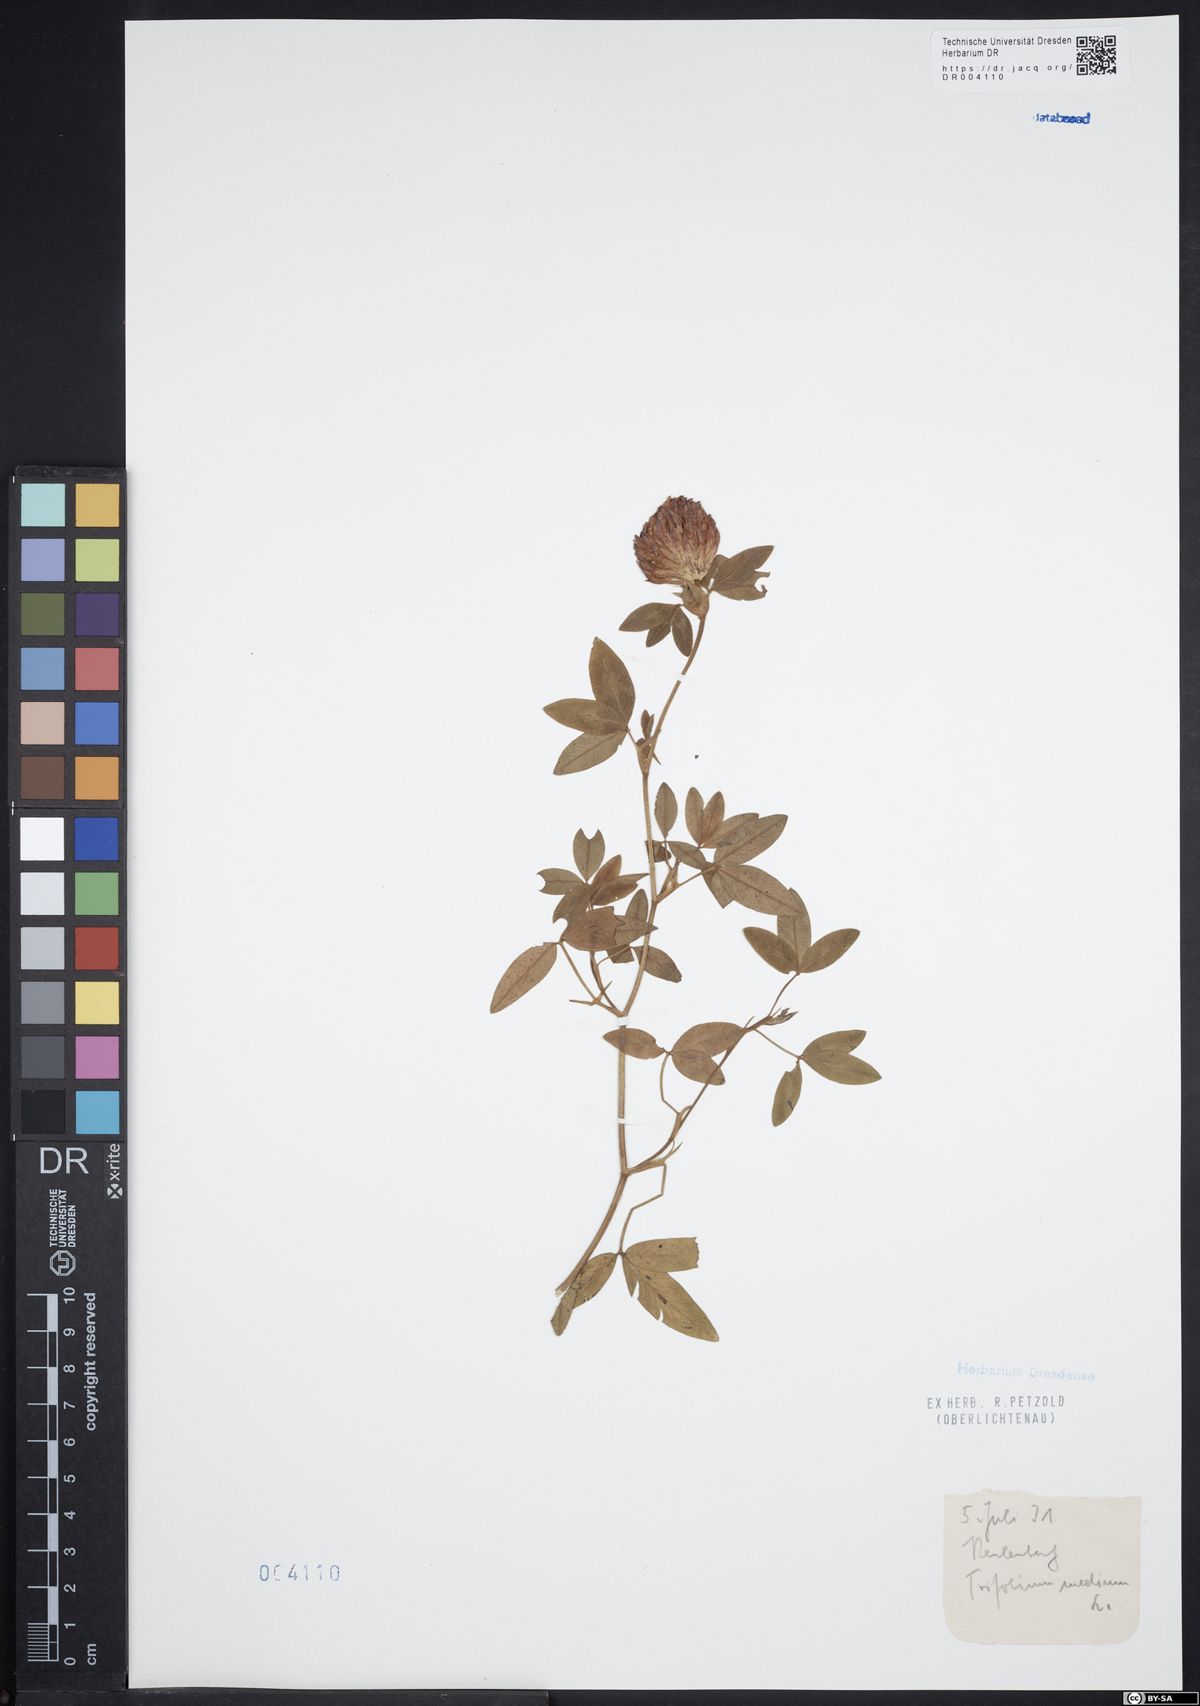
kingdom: Plantae
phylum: Tracheophyta
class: Magnoliopsida
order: Fabales
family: Fabaceae
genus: Trifolium
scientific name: Trifolium medium
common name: Zigzag clover
